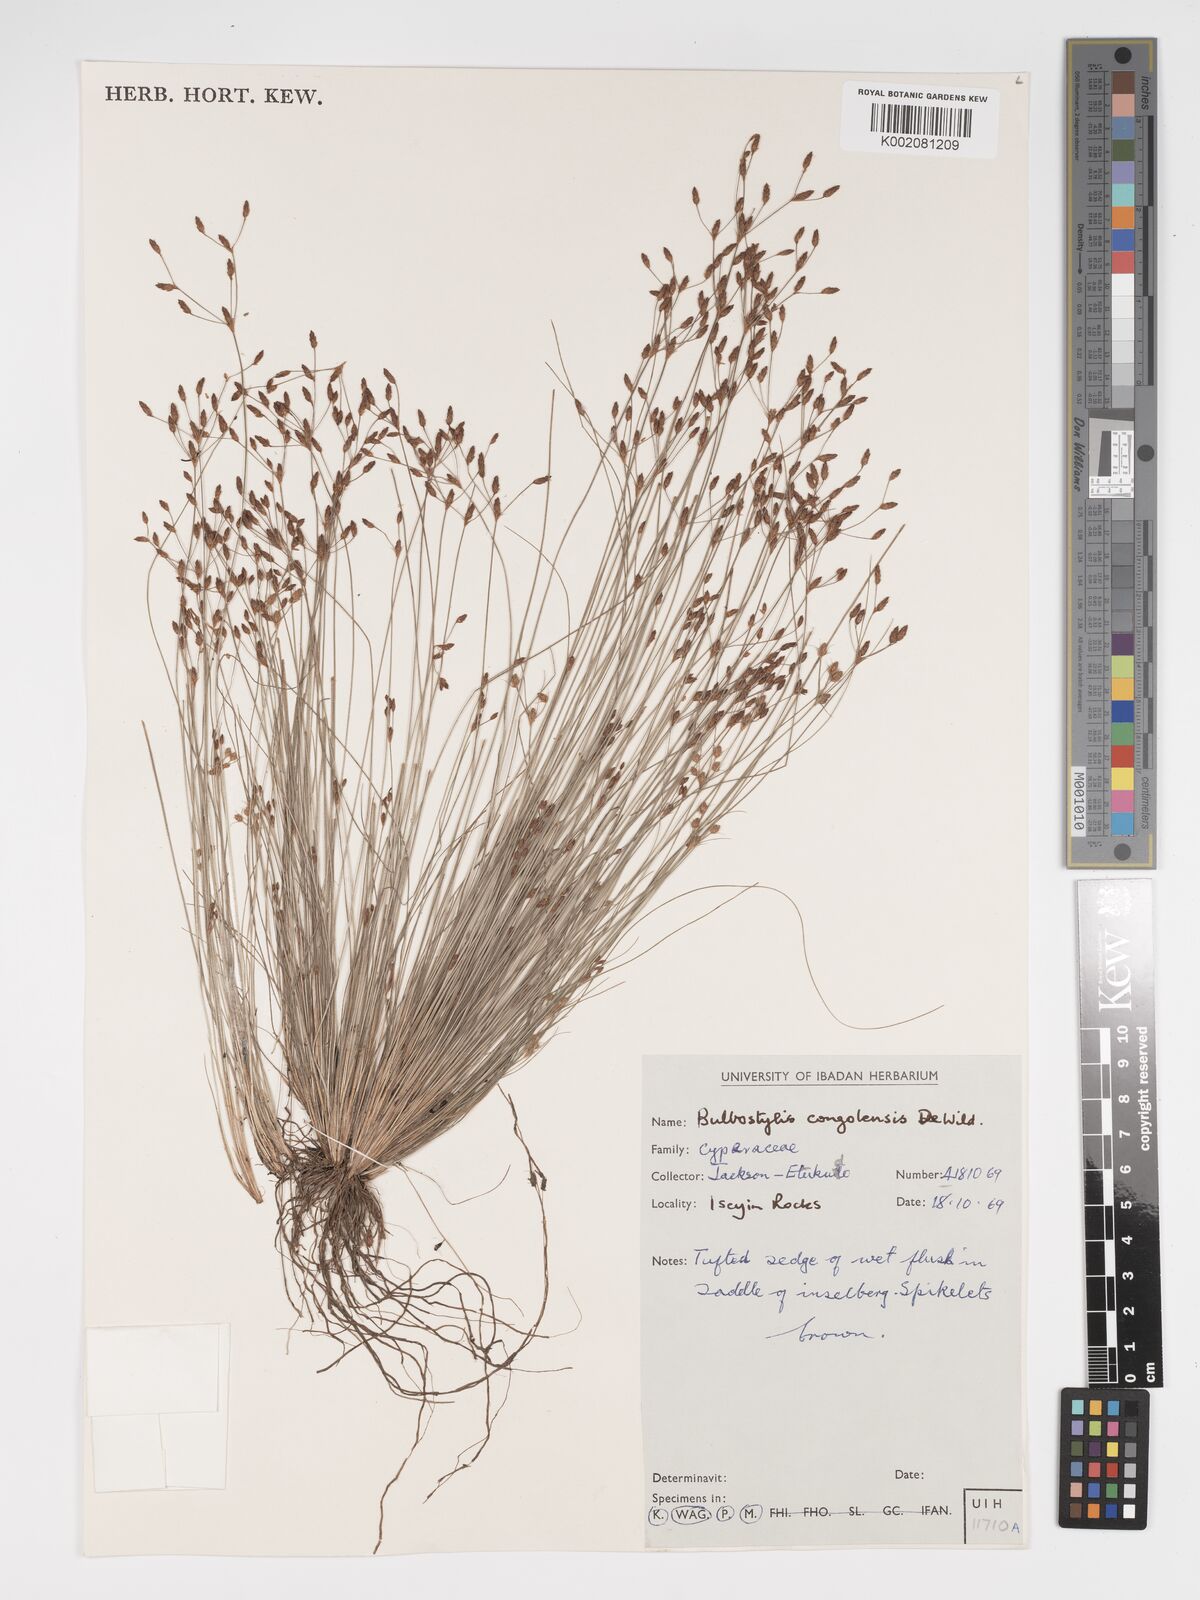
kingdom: Plantae
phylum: Tracheophyta
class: Liliopsida
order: Poales
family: Cyperaceae
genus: Bulbostylis
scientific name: Bulbostylis congolensis
